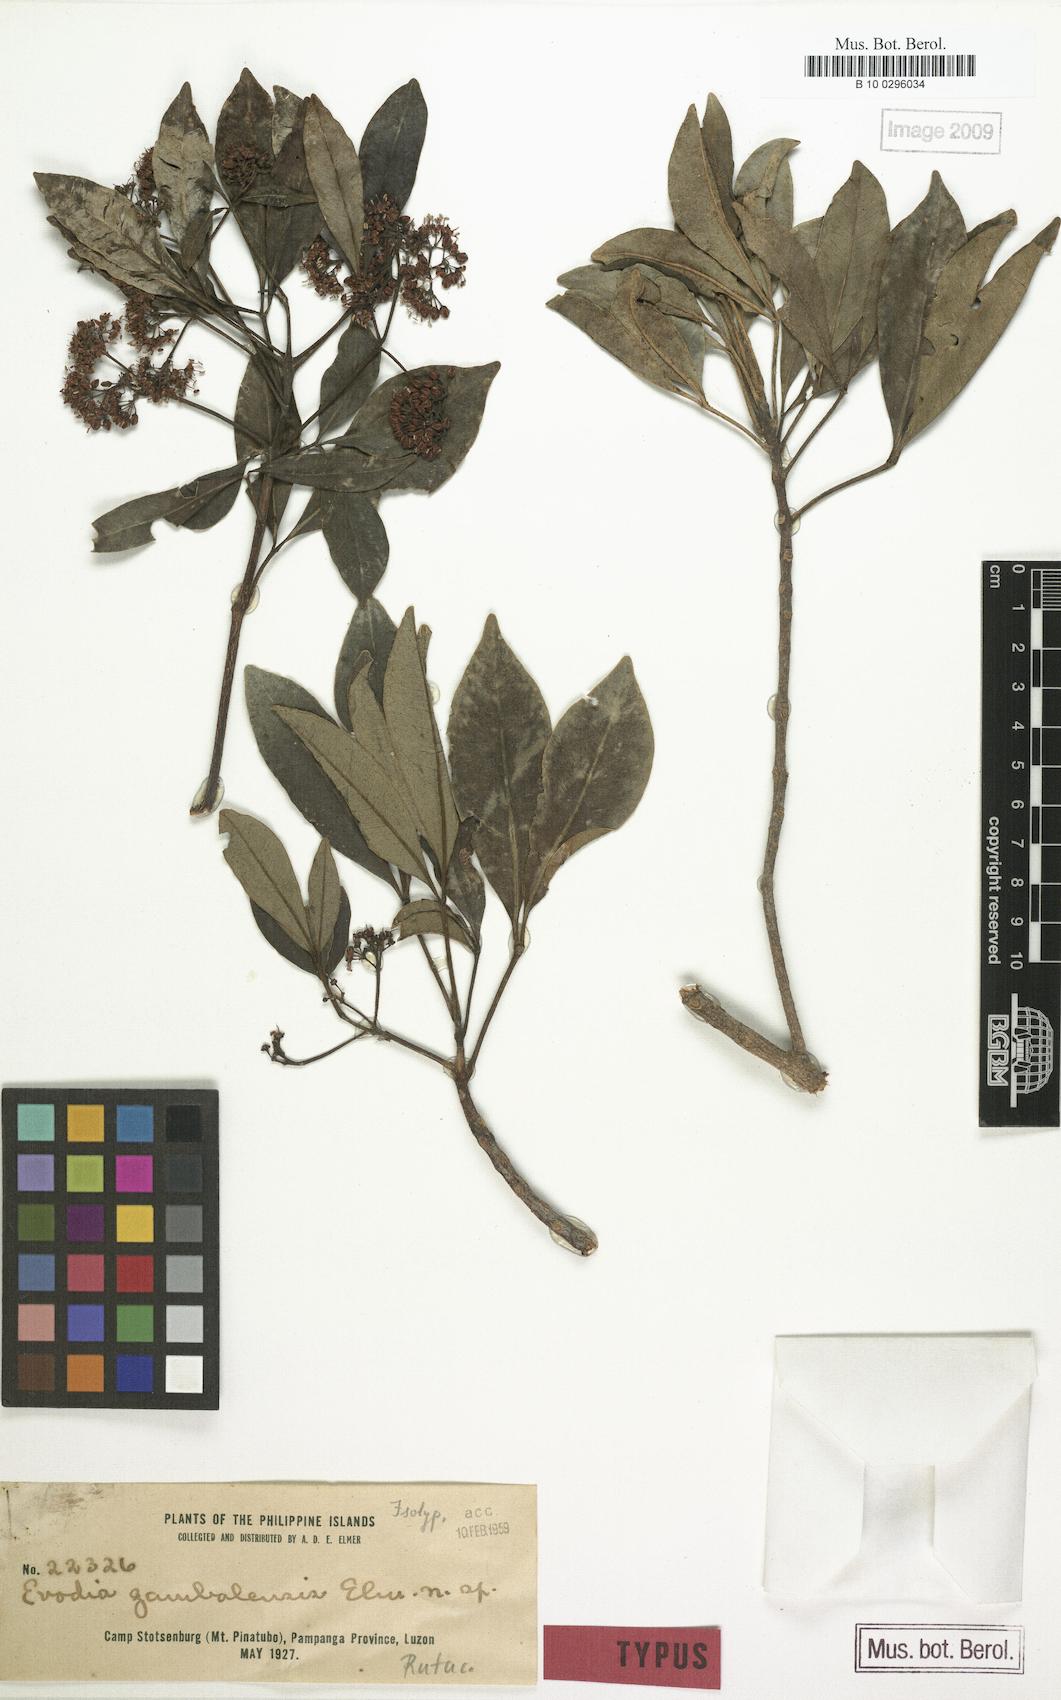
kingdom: Plantae
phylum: Tracheophyta
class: Magnoliopsida
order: Sapindales
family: Rutaceae
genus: Melicope
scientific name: Melicope bracteata
